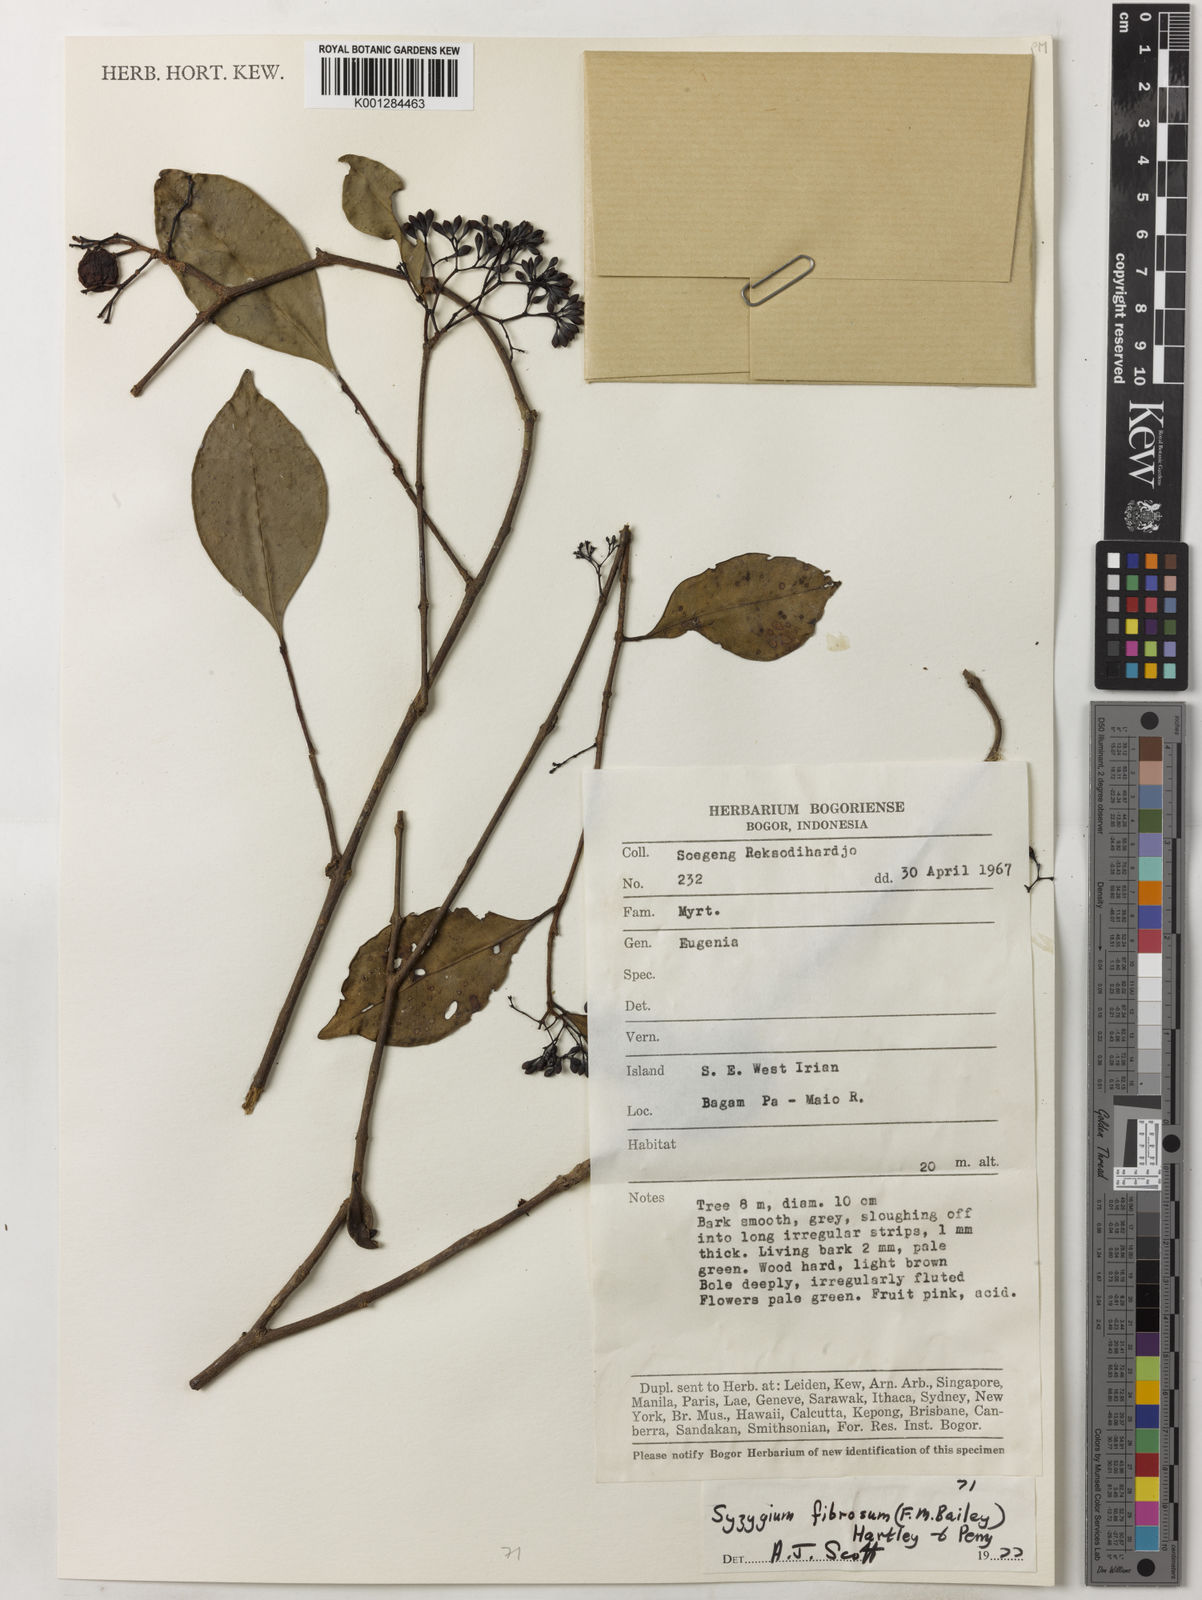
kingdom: Plantae
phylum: Tracheophyta
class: Magnoliopsida
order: Myrtales
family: Myrtaceae
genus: Syzygium
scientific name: Syzygium fibrosum
